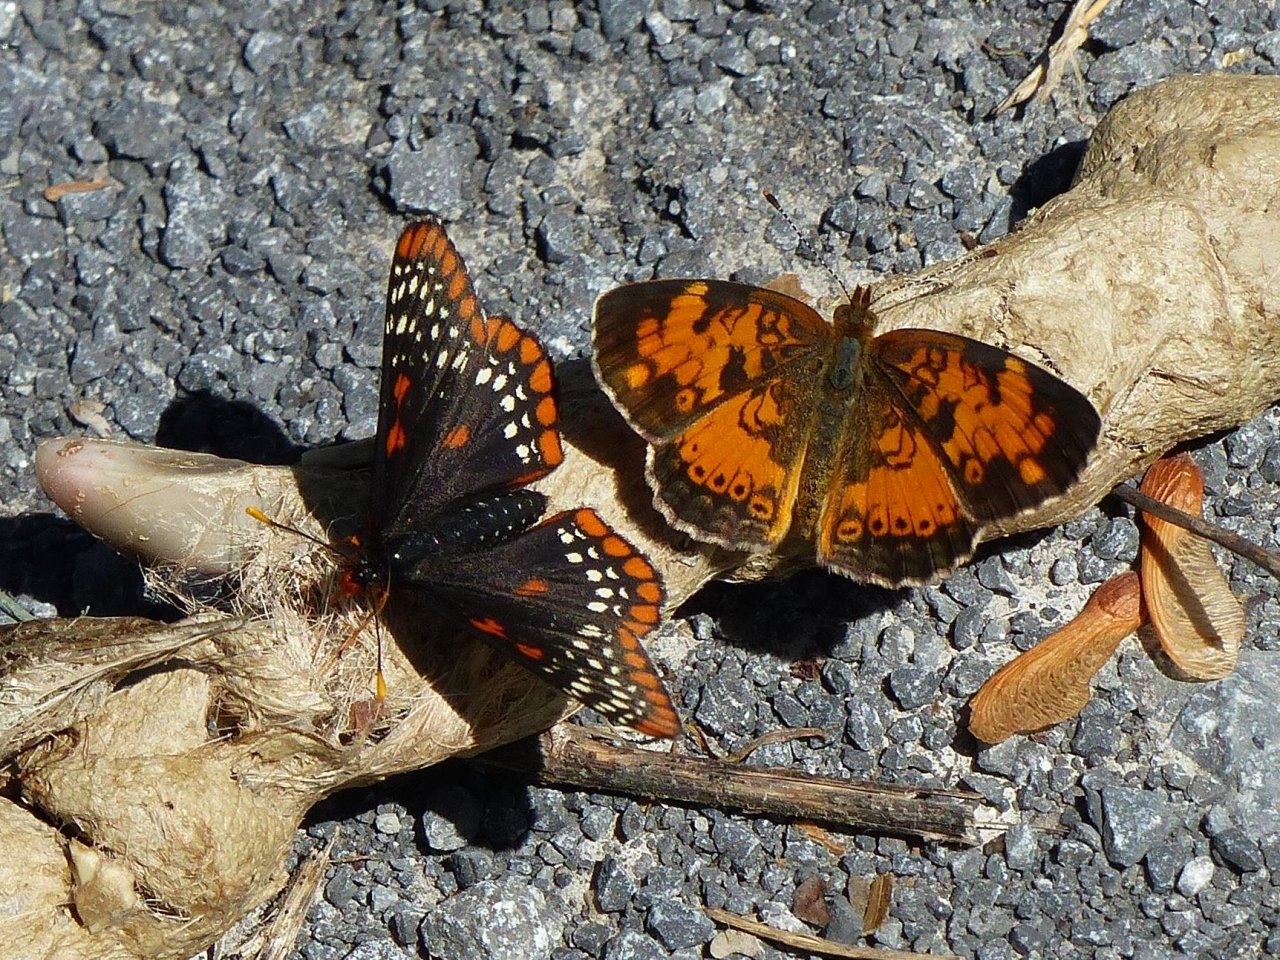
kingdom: Animalia
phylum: Arthropoda
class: Insecta
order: Lepidoptera
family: Nymphalidae
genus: Phyciodes
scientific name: Phyciodes tharos
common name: Northern Crescent
